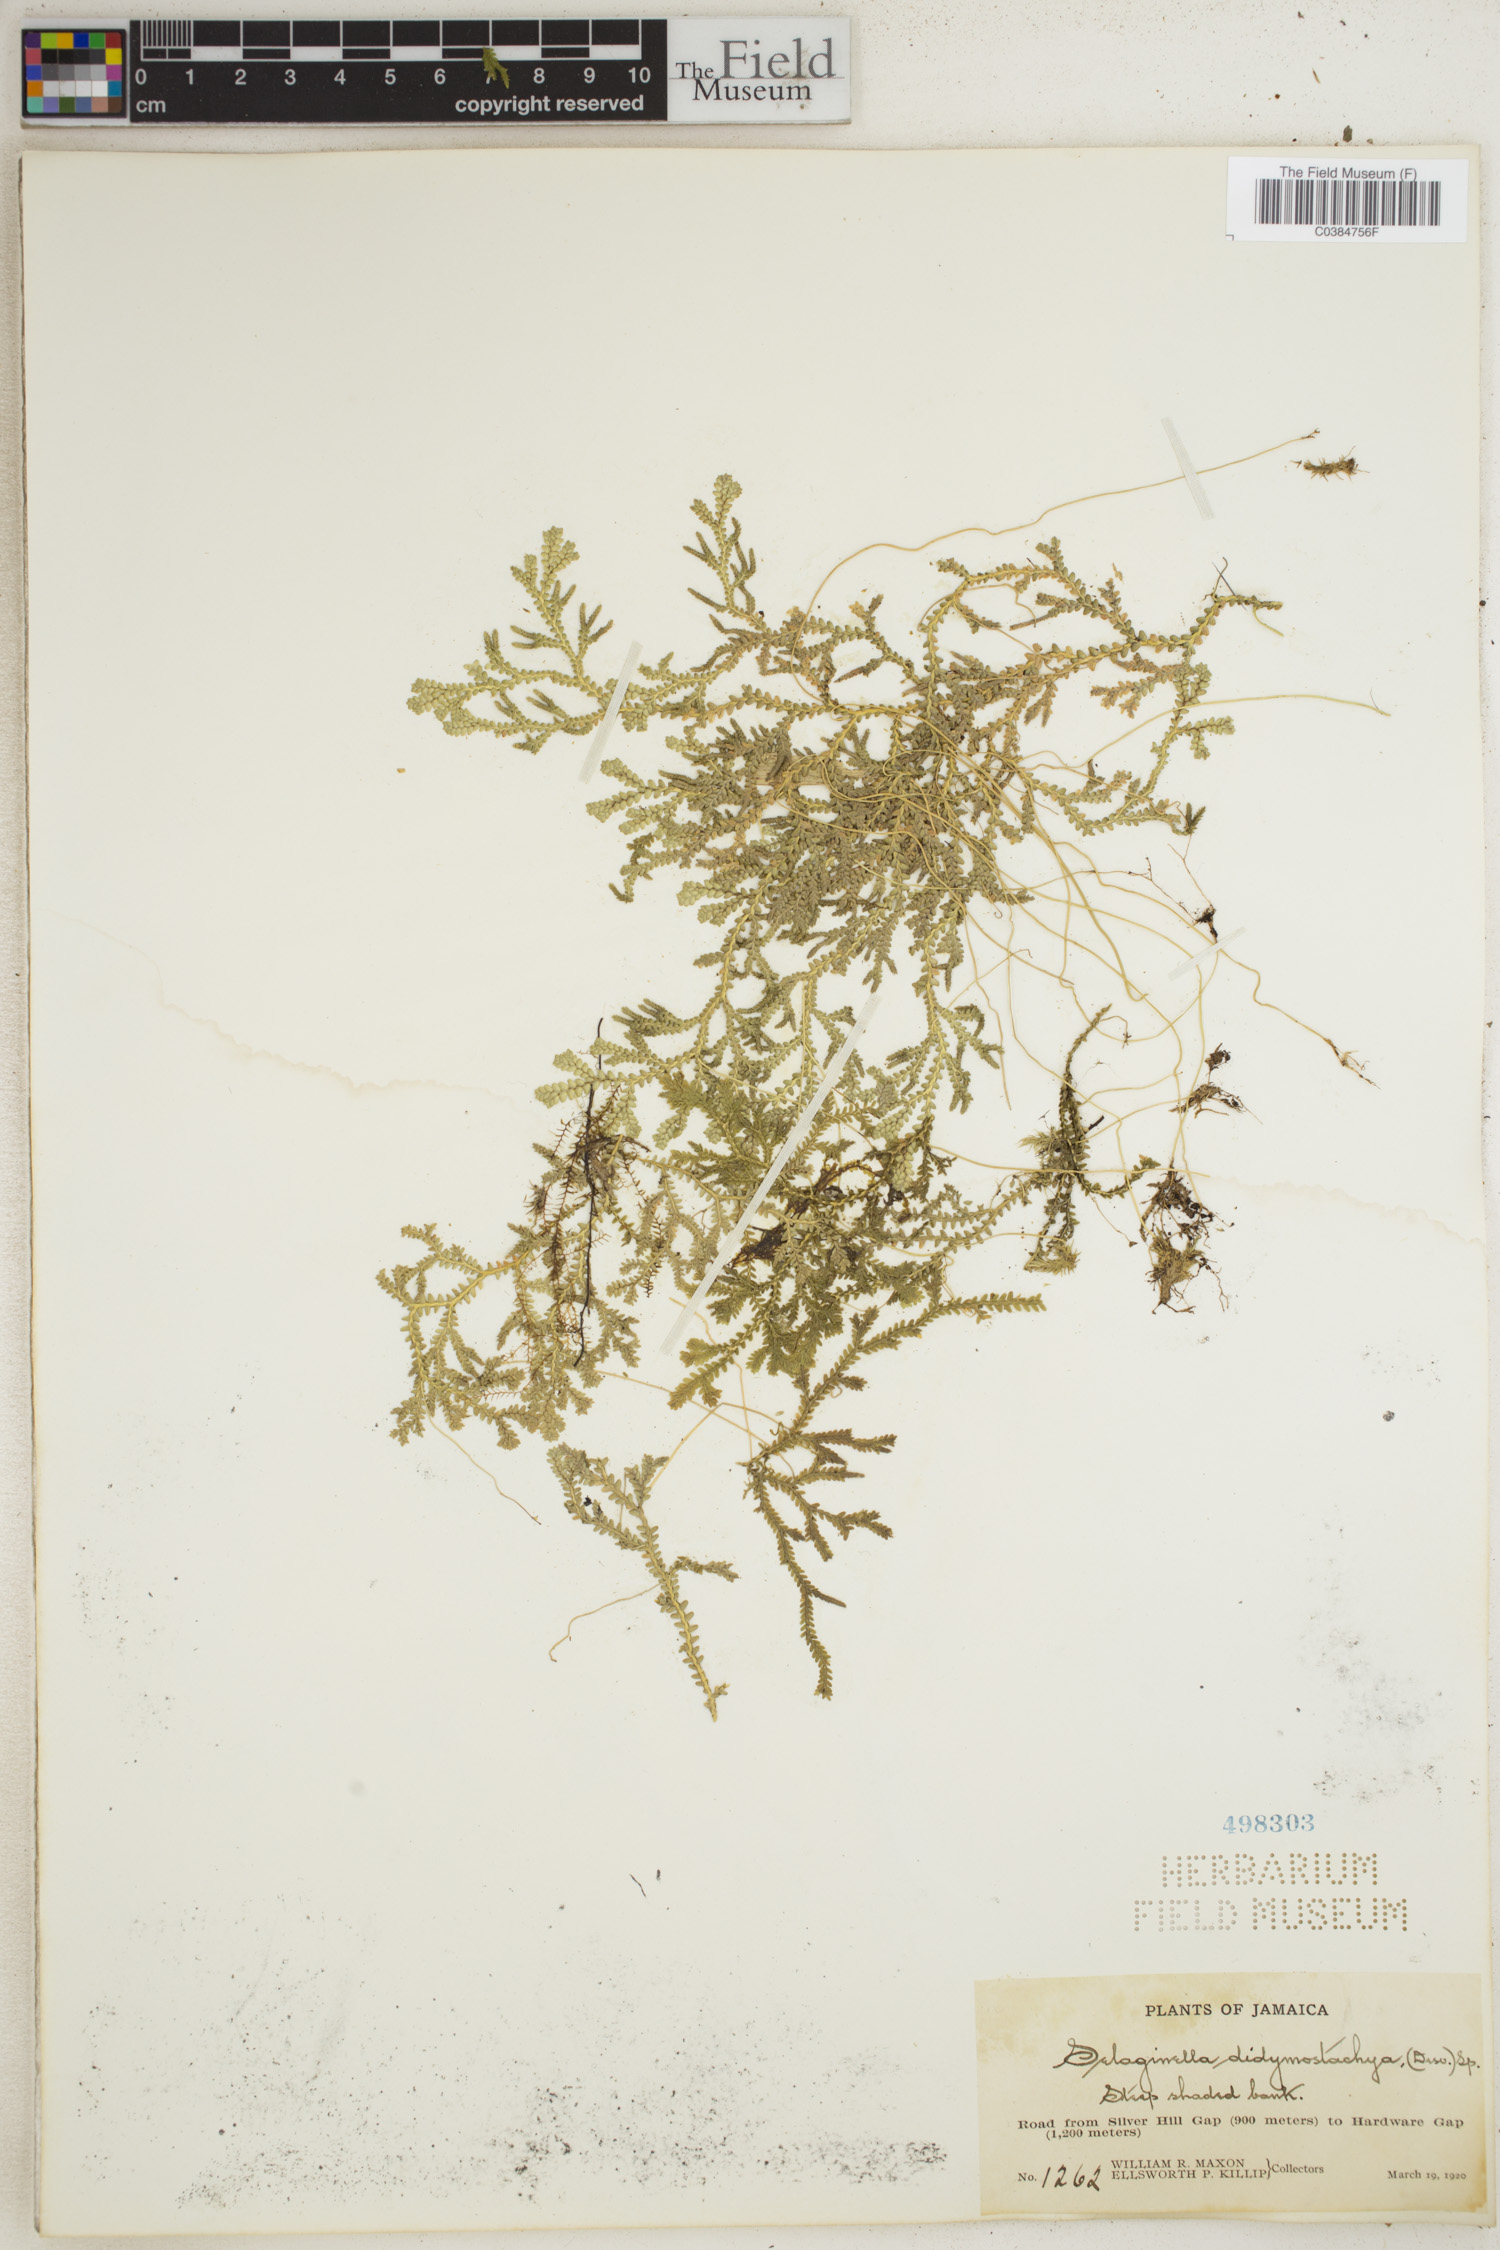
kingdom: Plantae
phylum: Tracheophyta
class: Lycopodiopsida
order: Selaginellales
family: Selaginellaceae
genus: Selaginella
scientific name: Selaginella denudata
